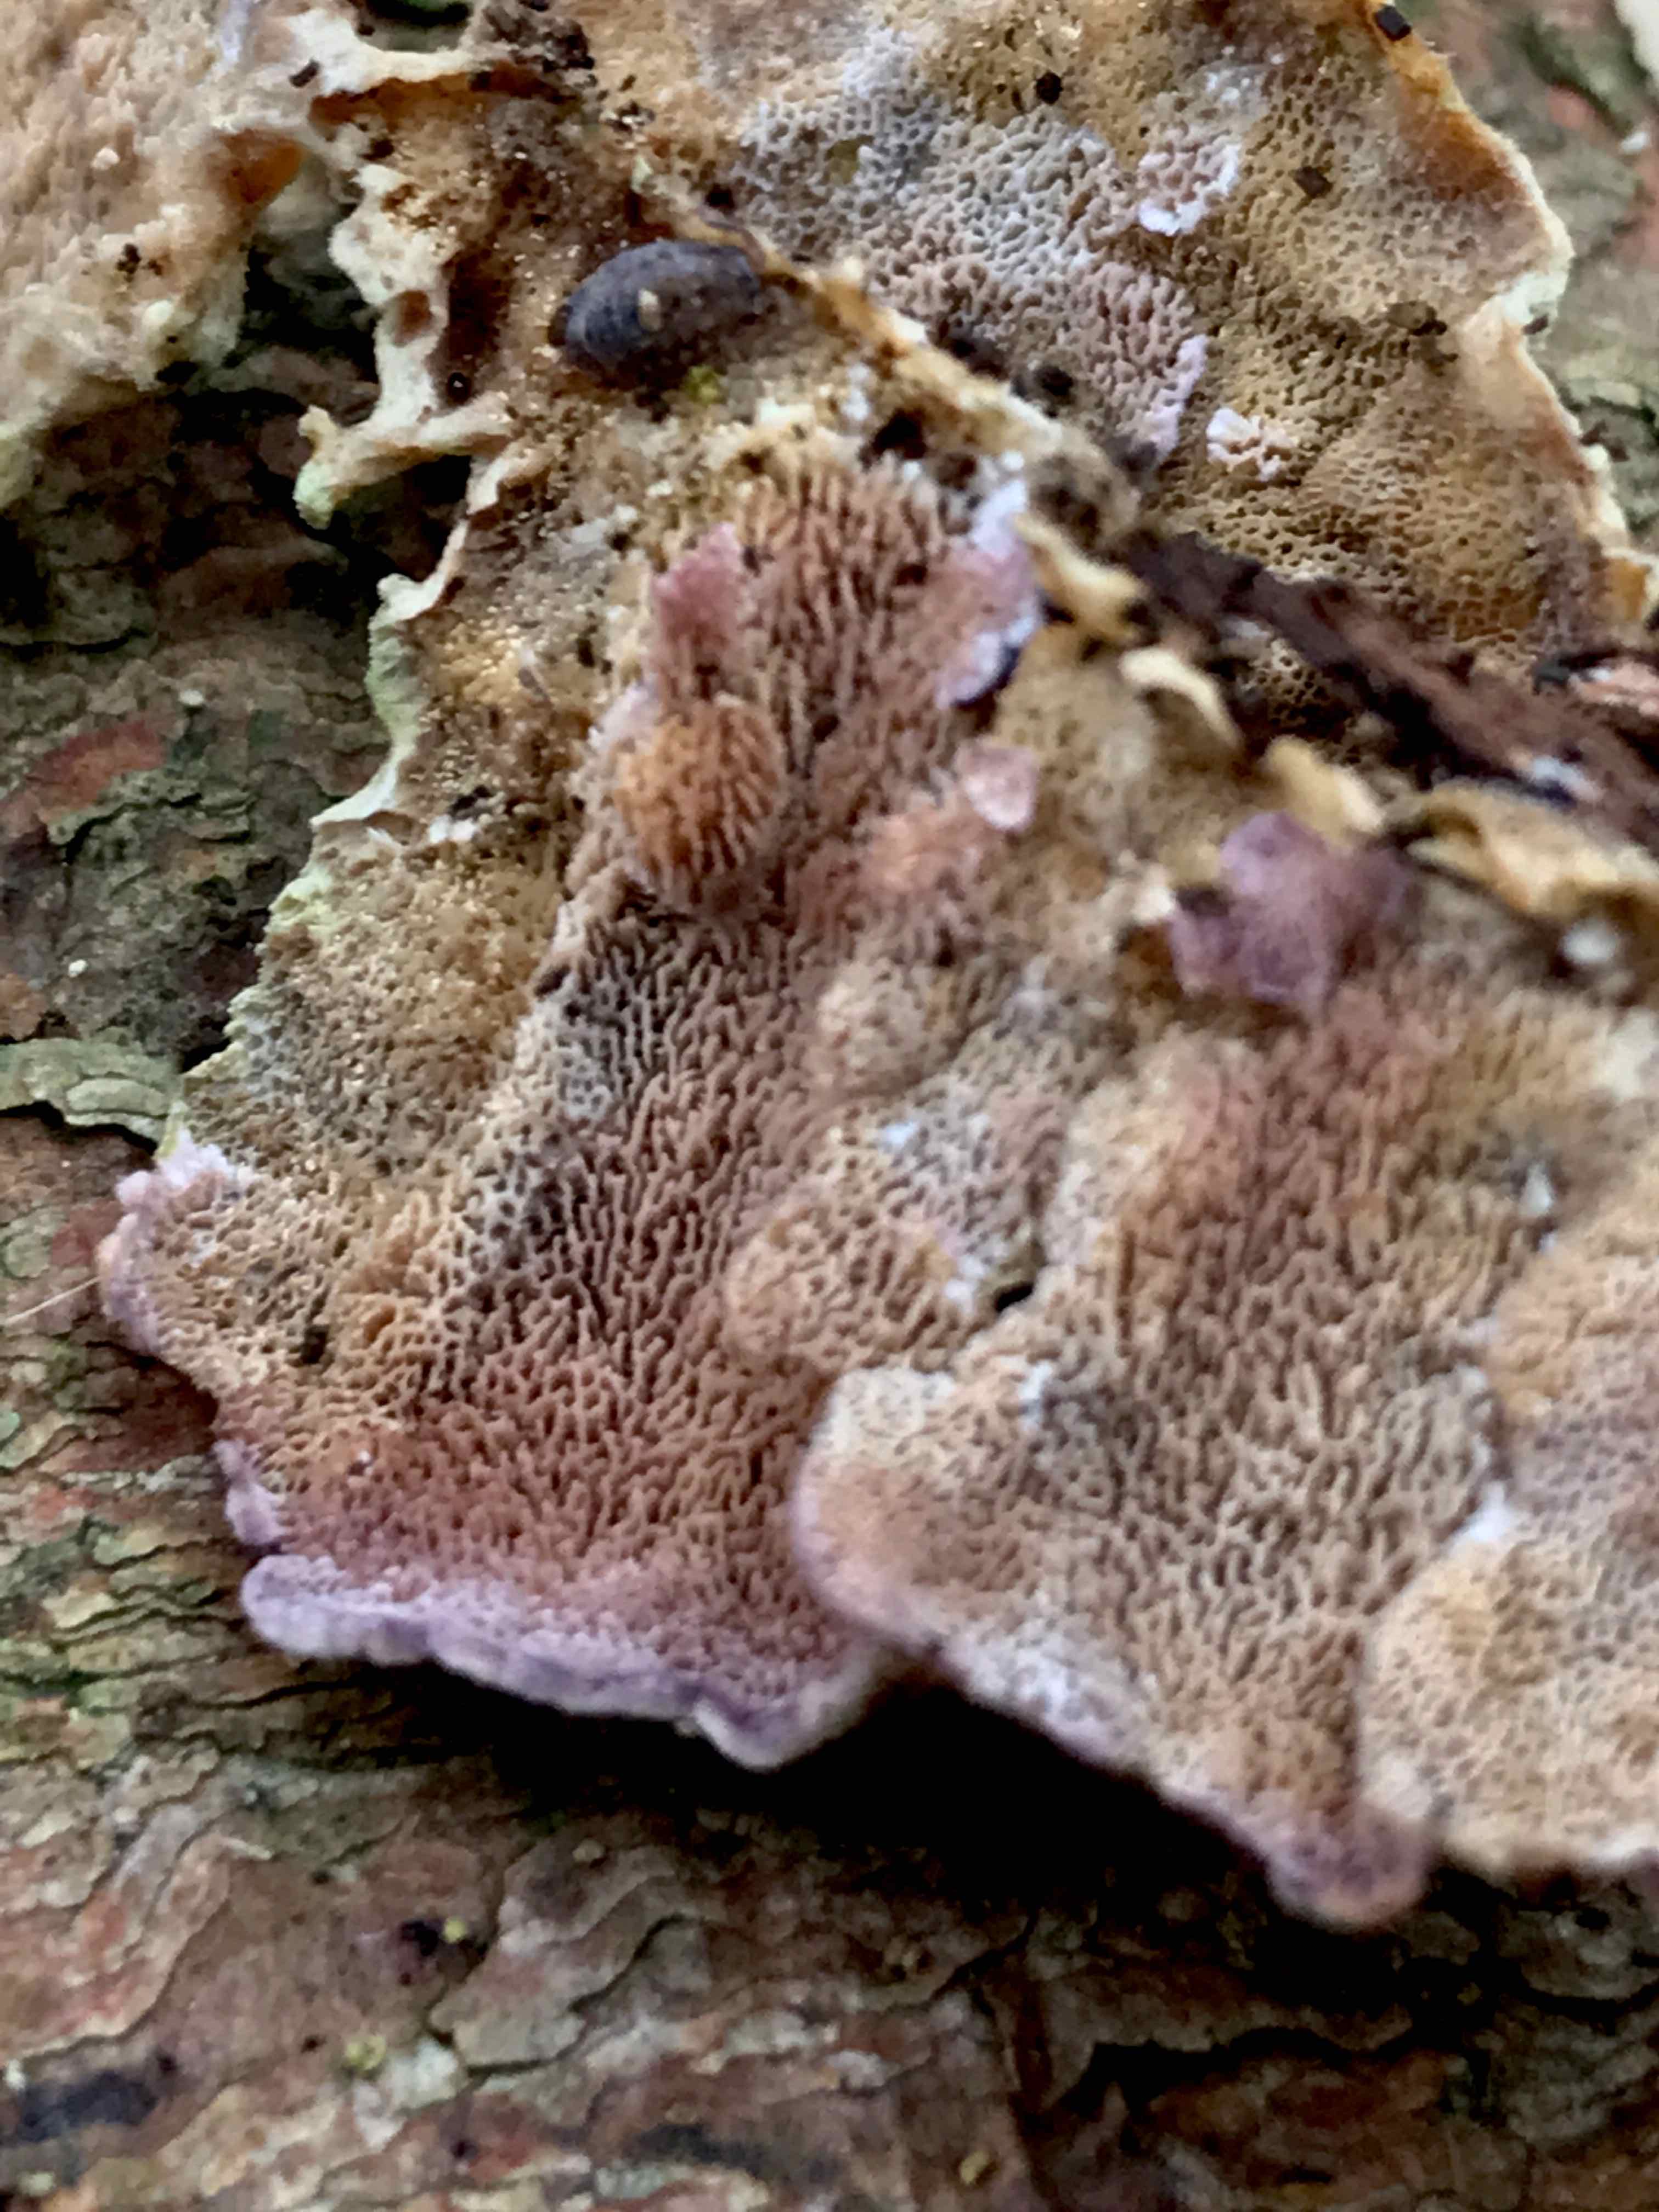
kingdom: Fungi
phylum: Basidiomycota
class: Agaricomycetes
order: Hymenochaetales
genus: Trichaptum
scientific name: Trichaptum abietinum
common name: almindelig violporesvamp
